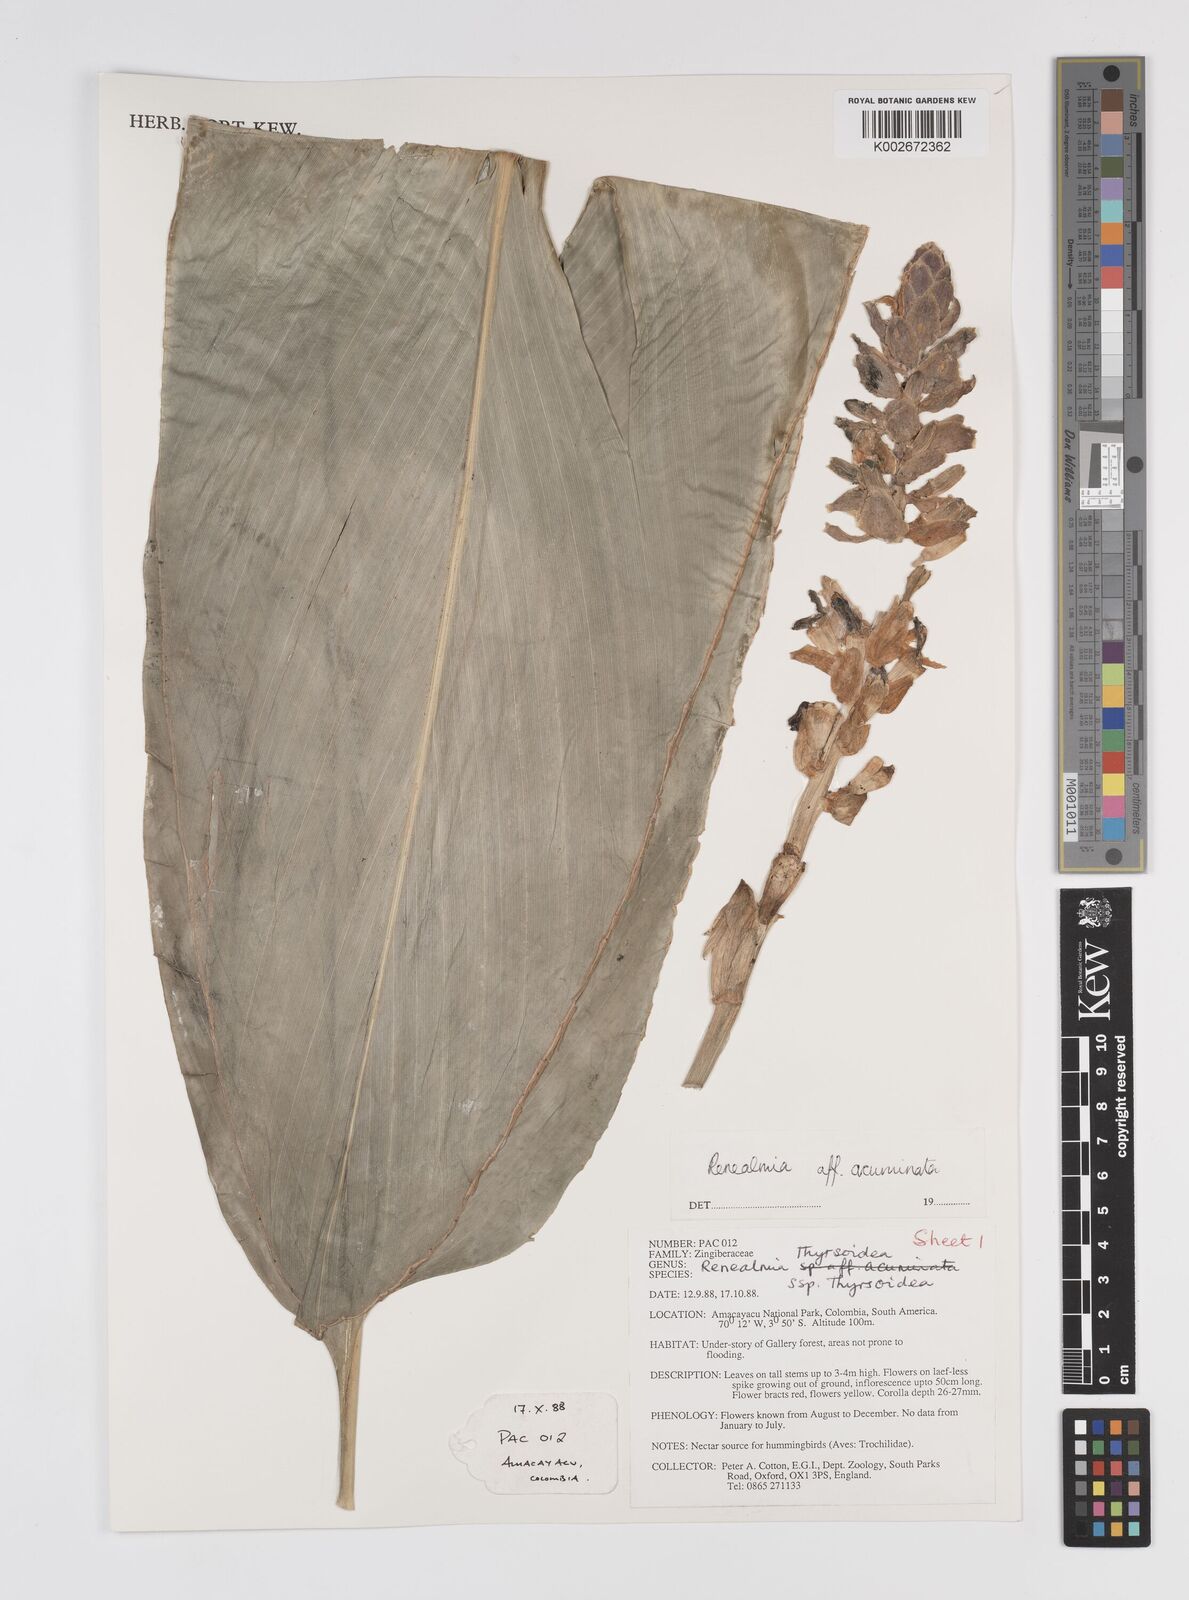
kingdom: Plantae
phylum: Tracheophyta
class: Liliopsida
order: Zingiberales
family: Zingiberaceae
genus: Renealmia
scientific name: Renealmia thyrsoidea
